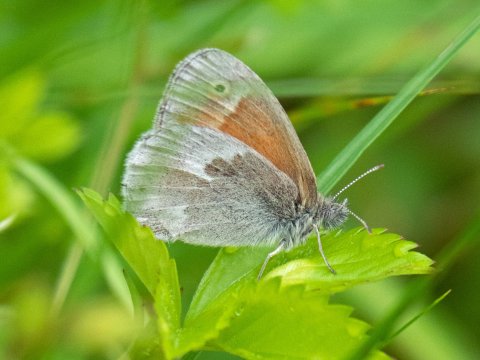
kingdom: Animalia
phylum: Arthropoda
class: Insecta
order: Lepidoptera
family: Nymphalidae
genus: Coenonympha
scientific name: Coenonympha california
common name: California Ringlet
